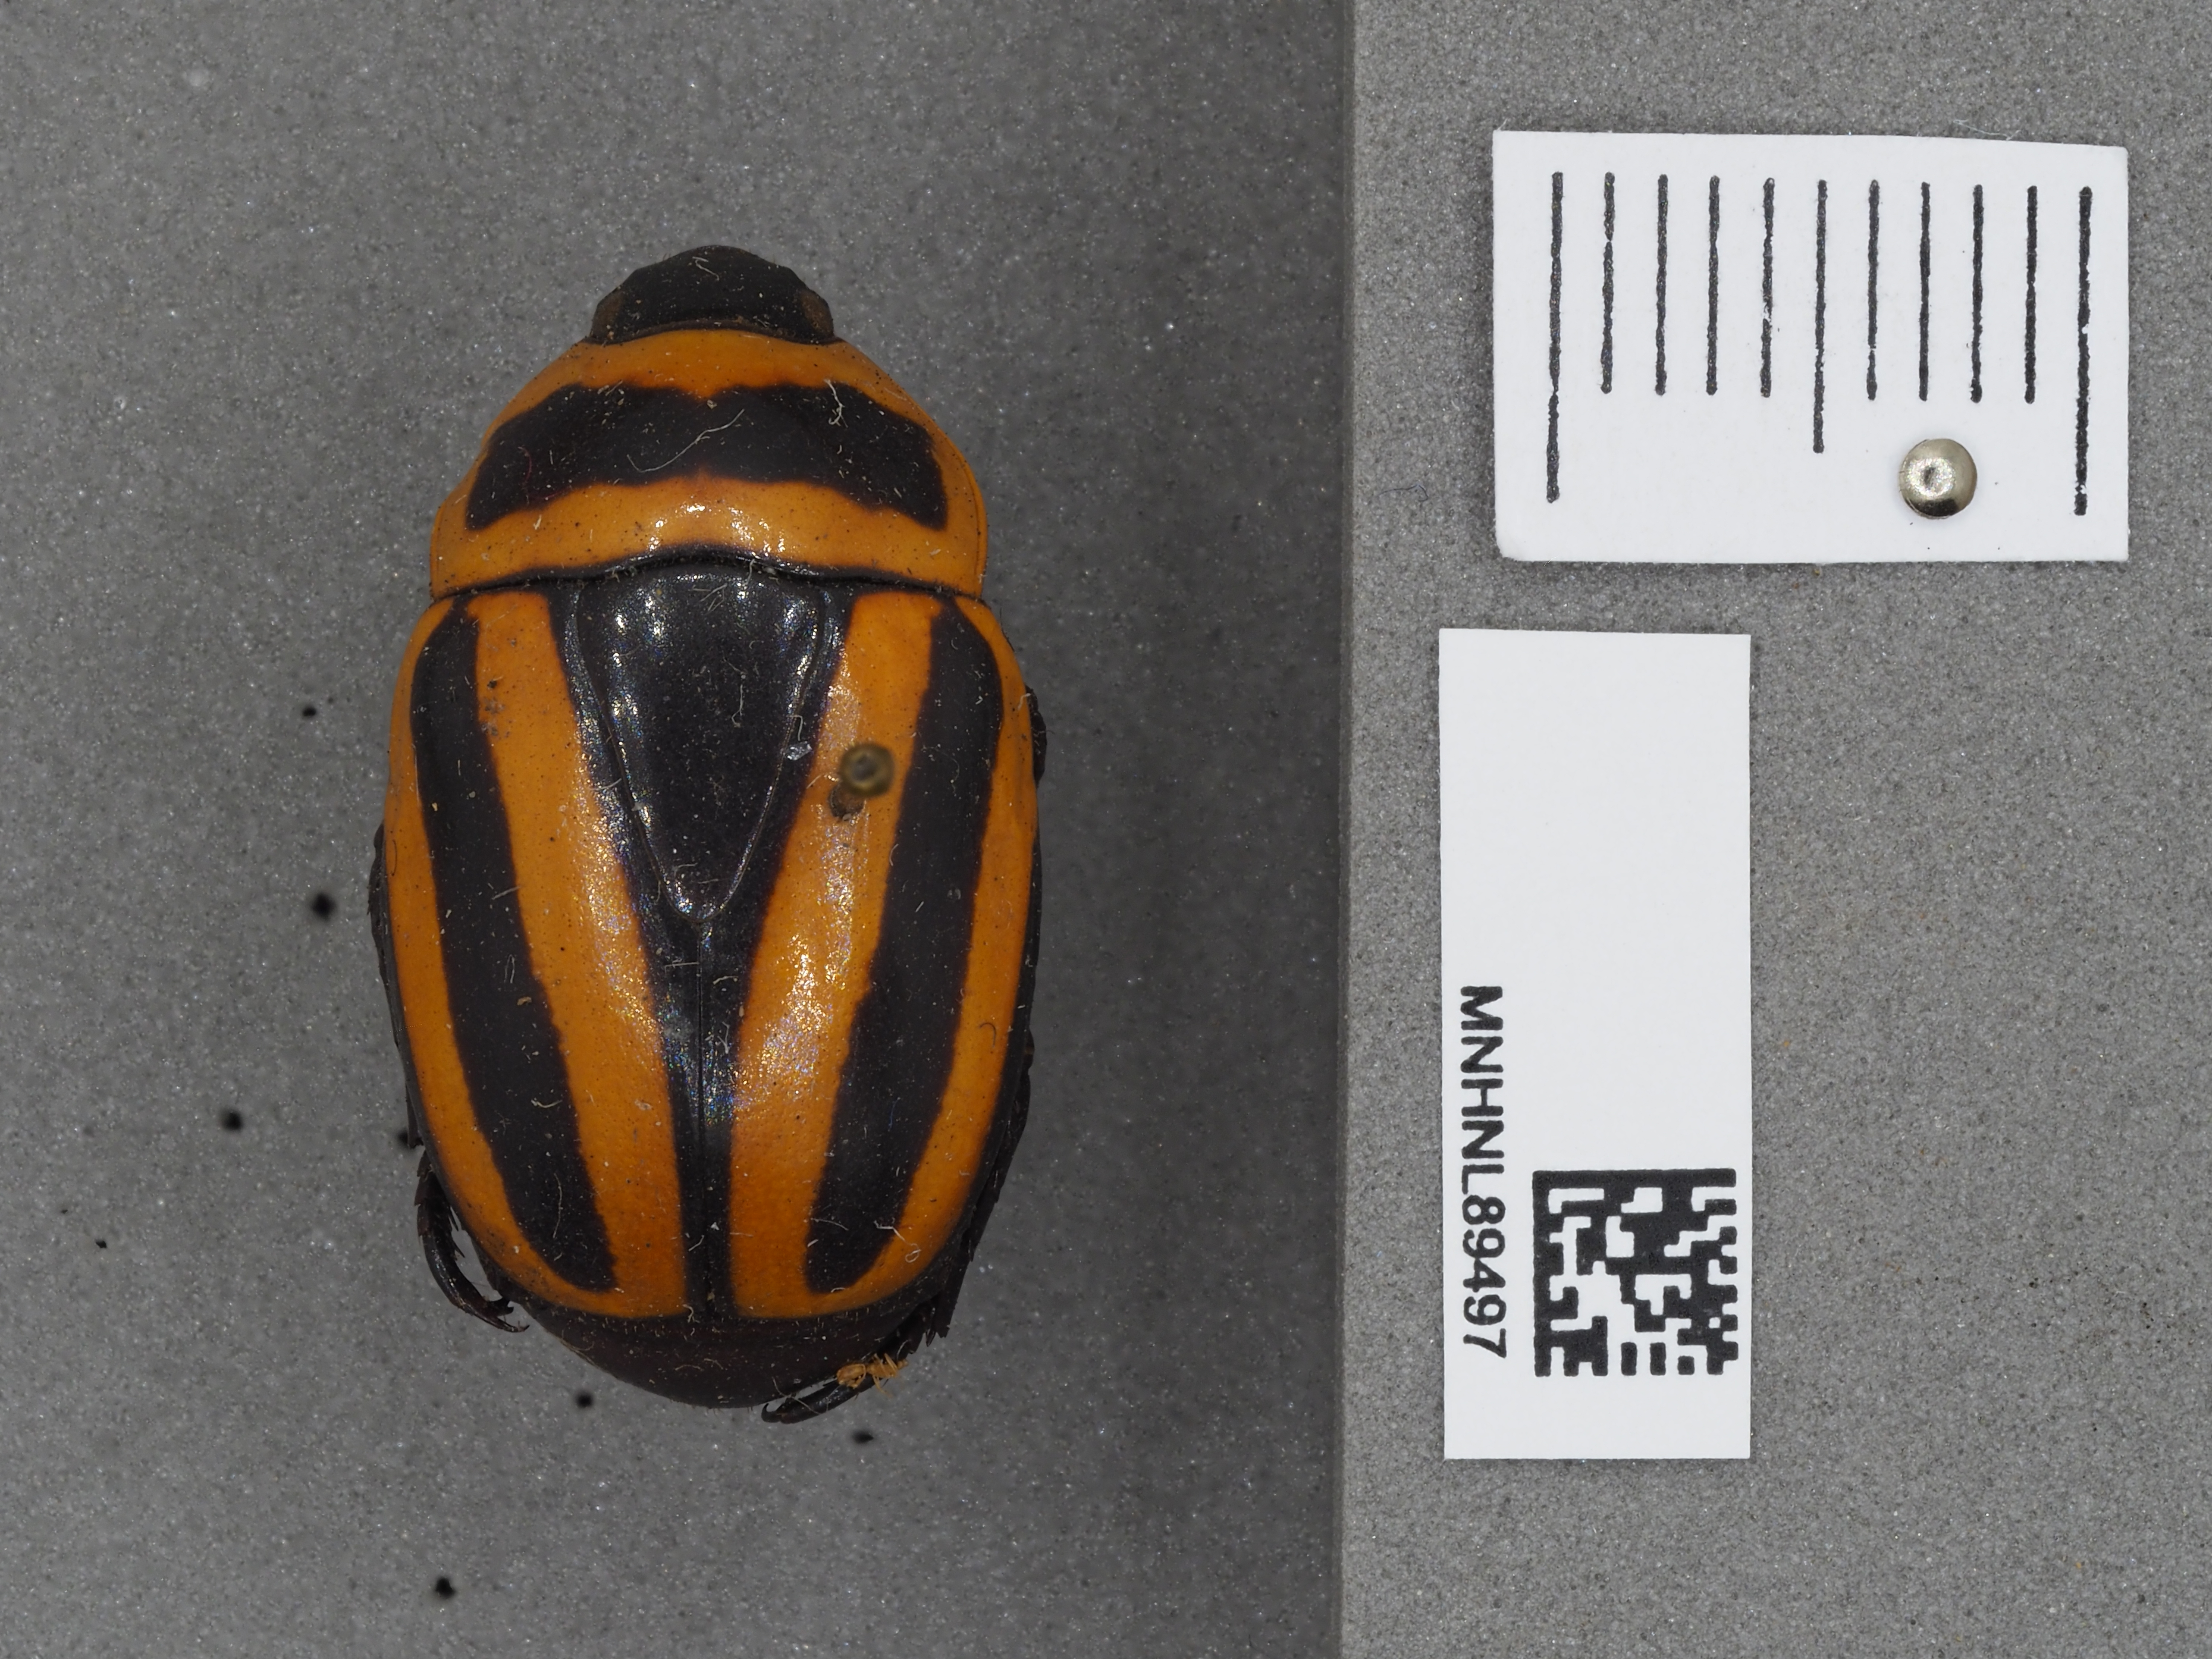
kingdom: Animalia
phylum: Arthropoda
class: Insecta
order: Coleoptera
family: Scarabaeidae
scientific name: Scarabaeidae
